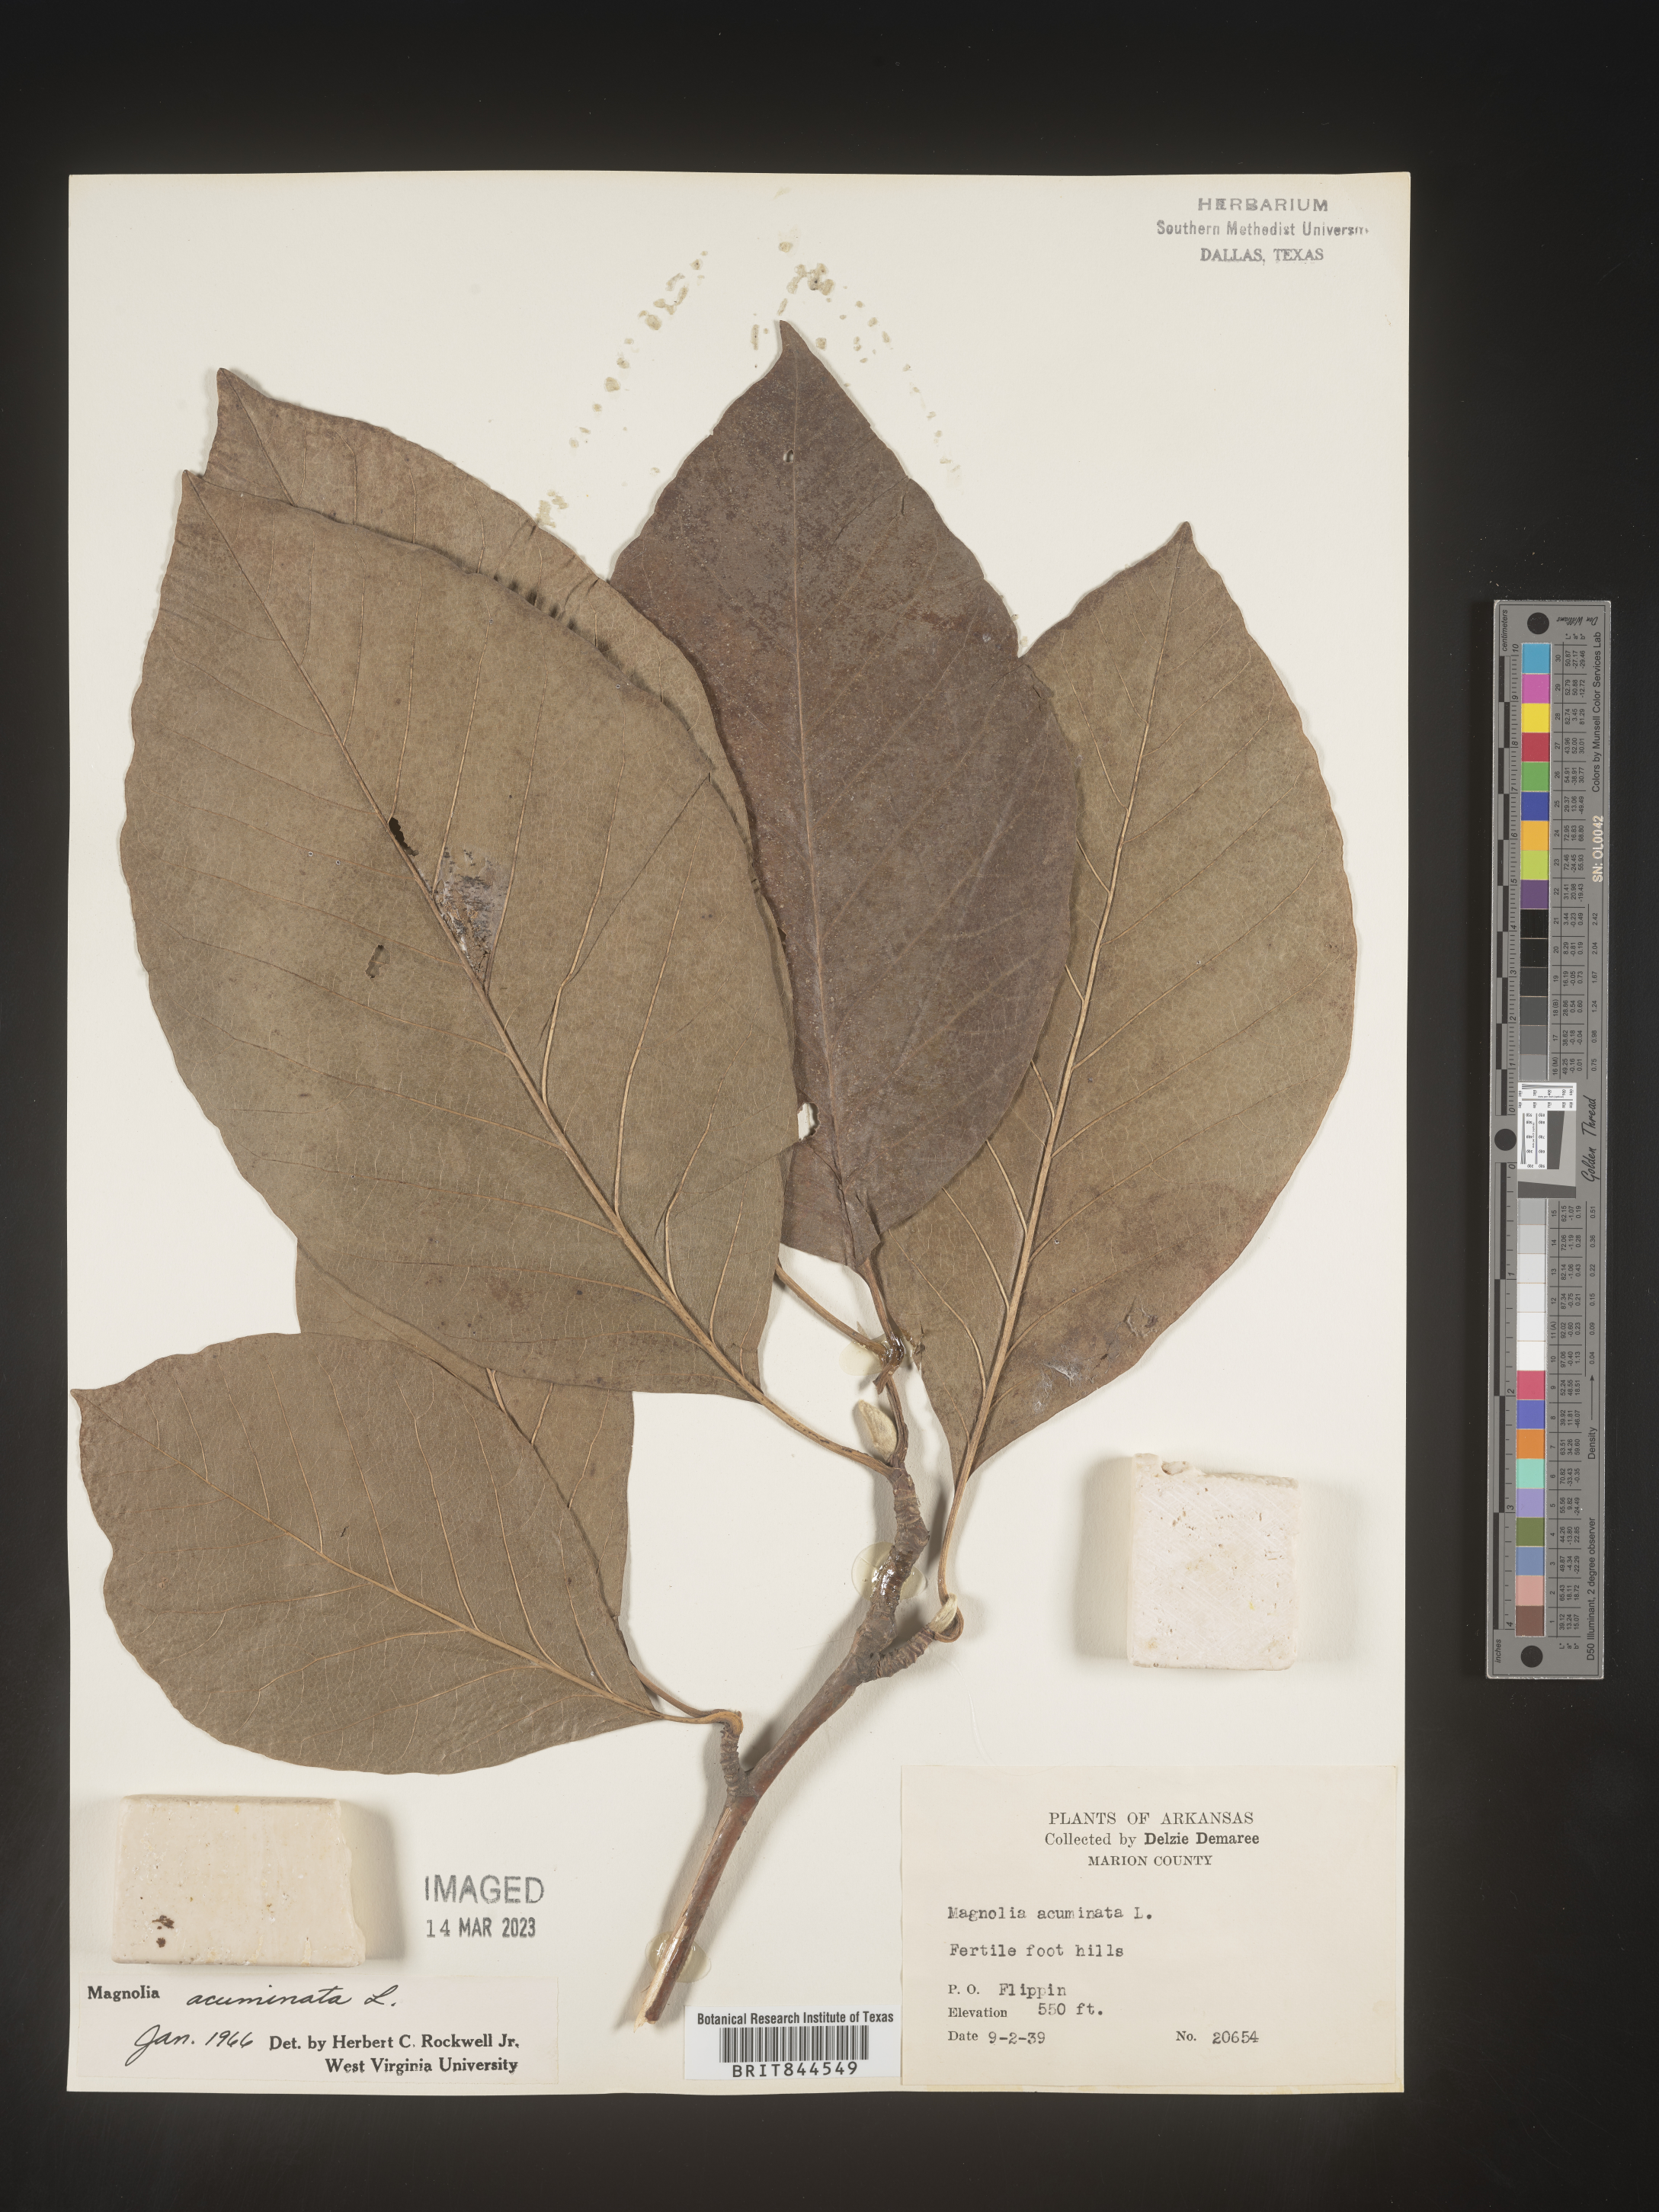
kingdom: Plantae
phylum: Tracheophyta
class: Magnoliopsida
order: Magnoliales
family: Magnoliaceae
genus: Magnolia
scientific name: Magnolia acuminata
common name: Cucumber magnolia
